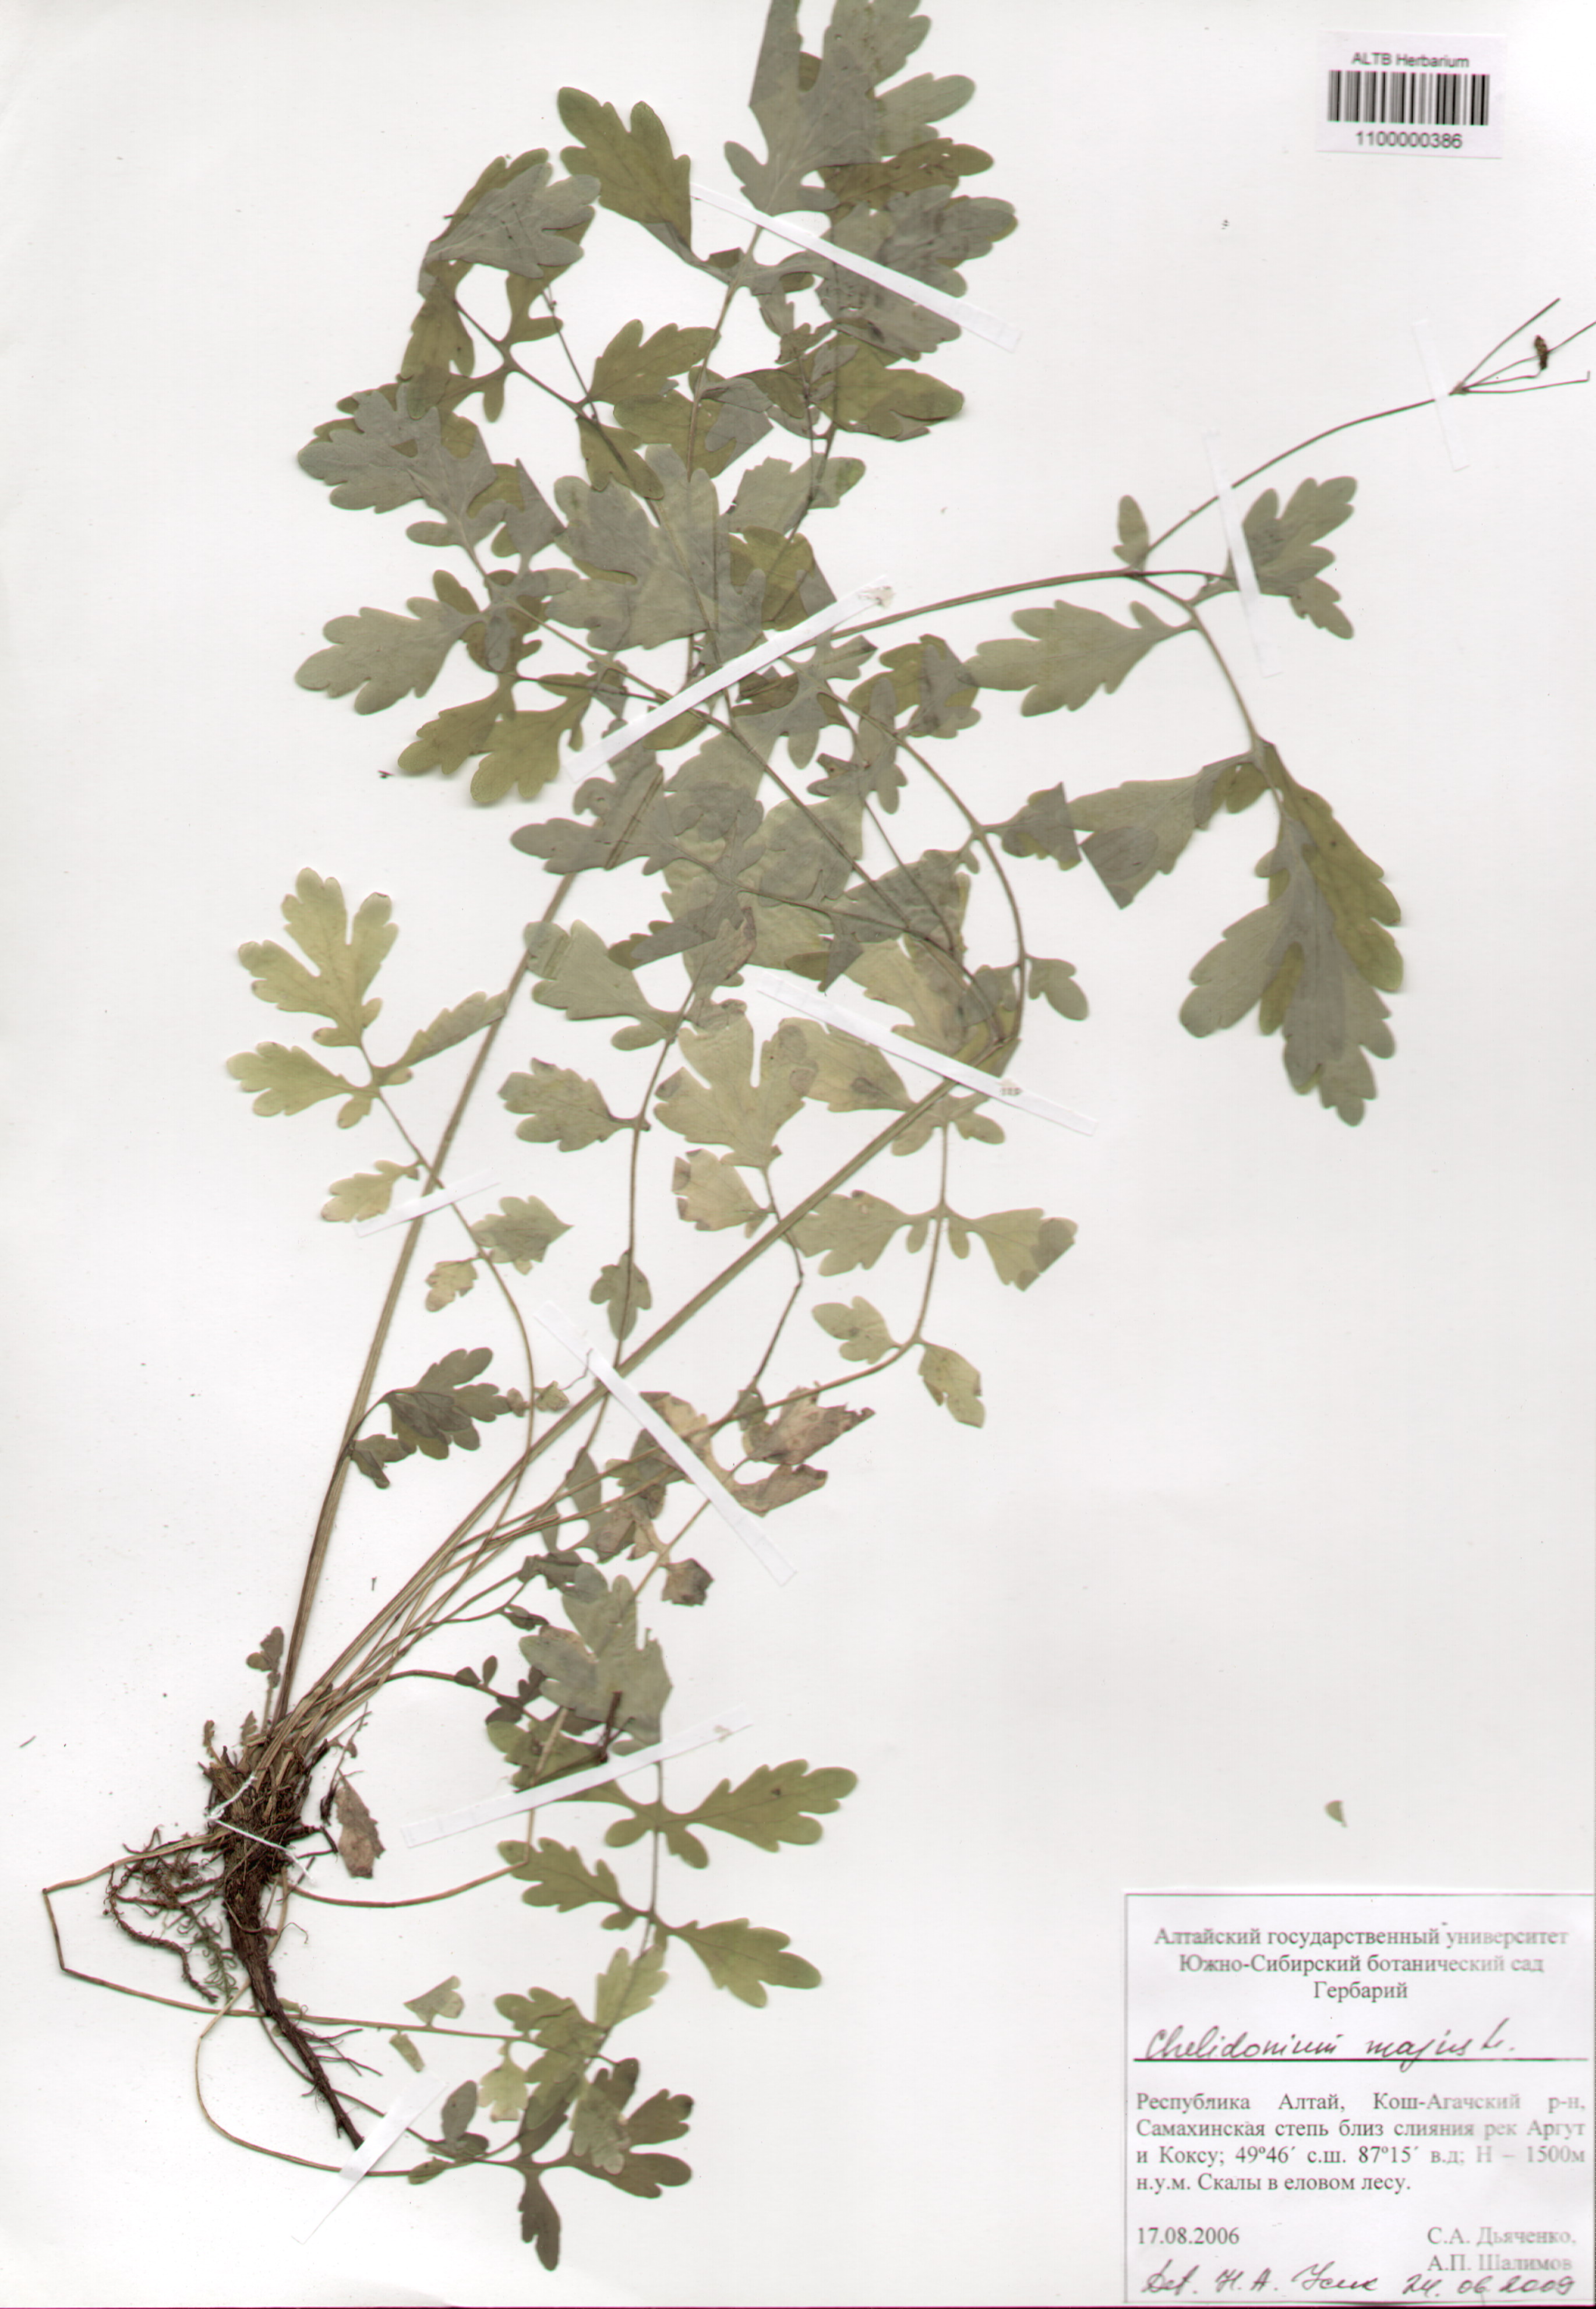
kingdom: Plantae
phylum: Tracheophyta
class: Magnoliopsida
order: Ranunculales
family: Papaveraceae
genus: Chelidonium
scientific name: Chelidonium majus
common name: Greater celandine
